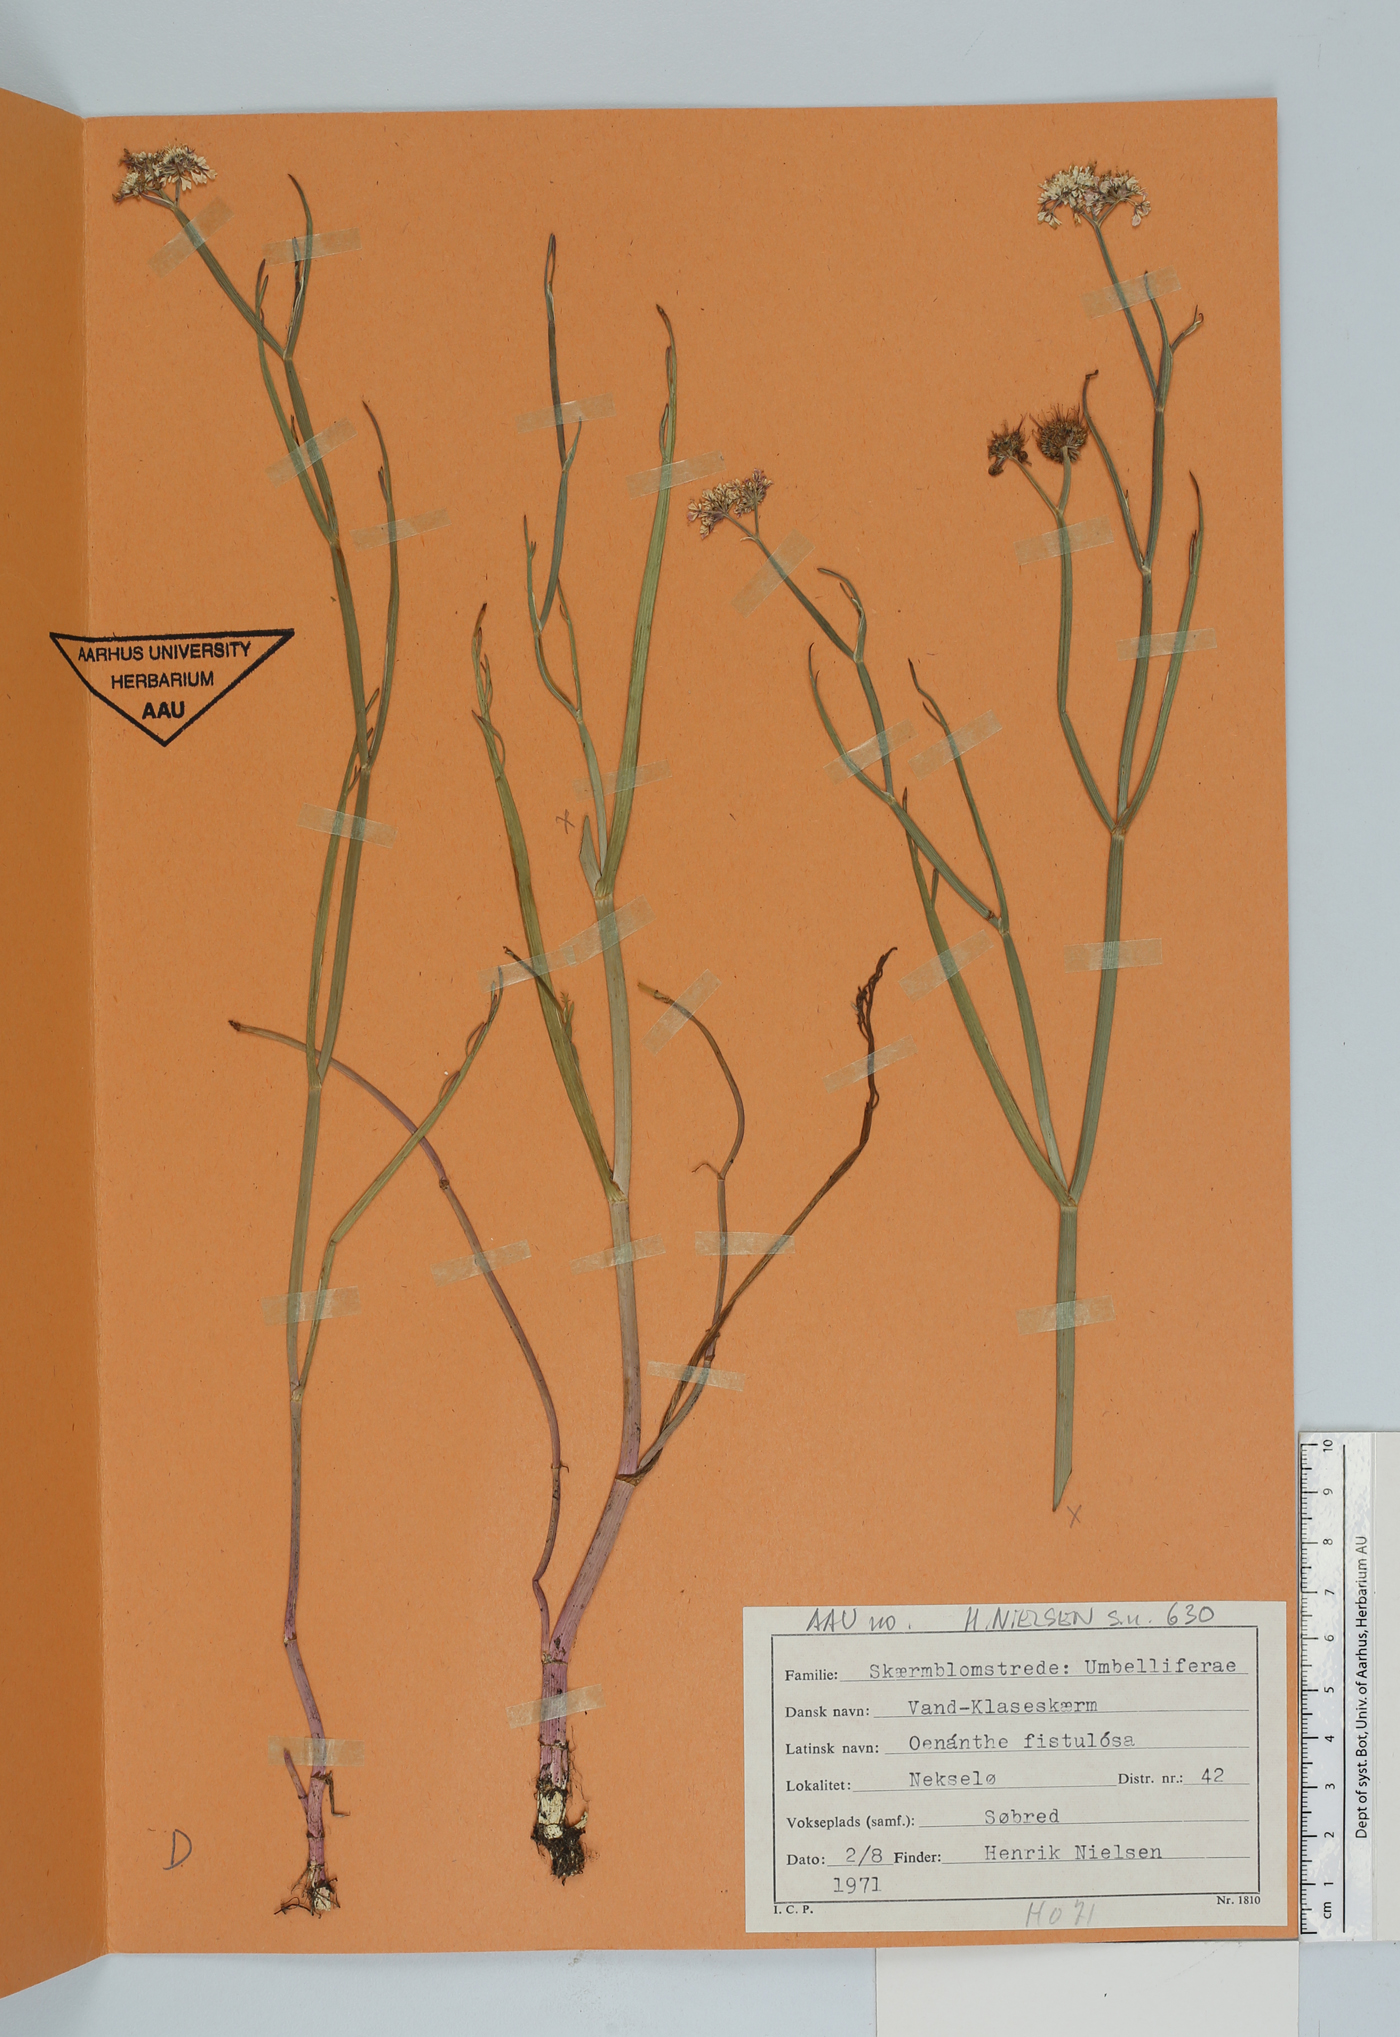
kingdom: Plantae
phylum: Tracheophyta
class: Magnoliopsida
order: Apiales
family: Apiaceae
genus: Oenanthe
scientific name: Oenanthe fistulosa
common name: Tubular water-dropwort
